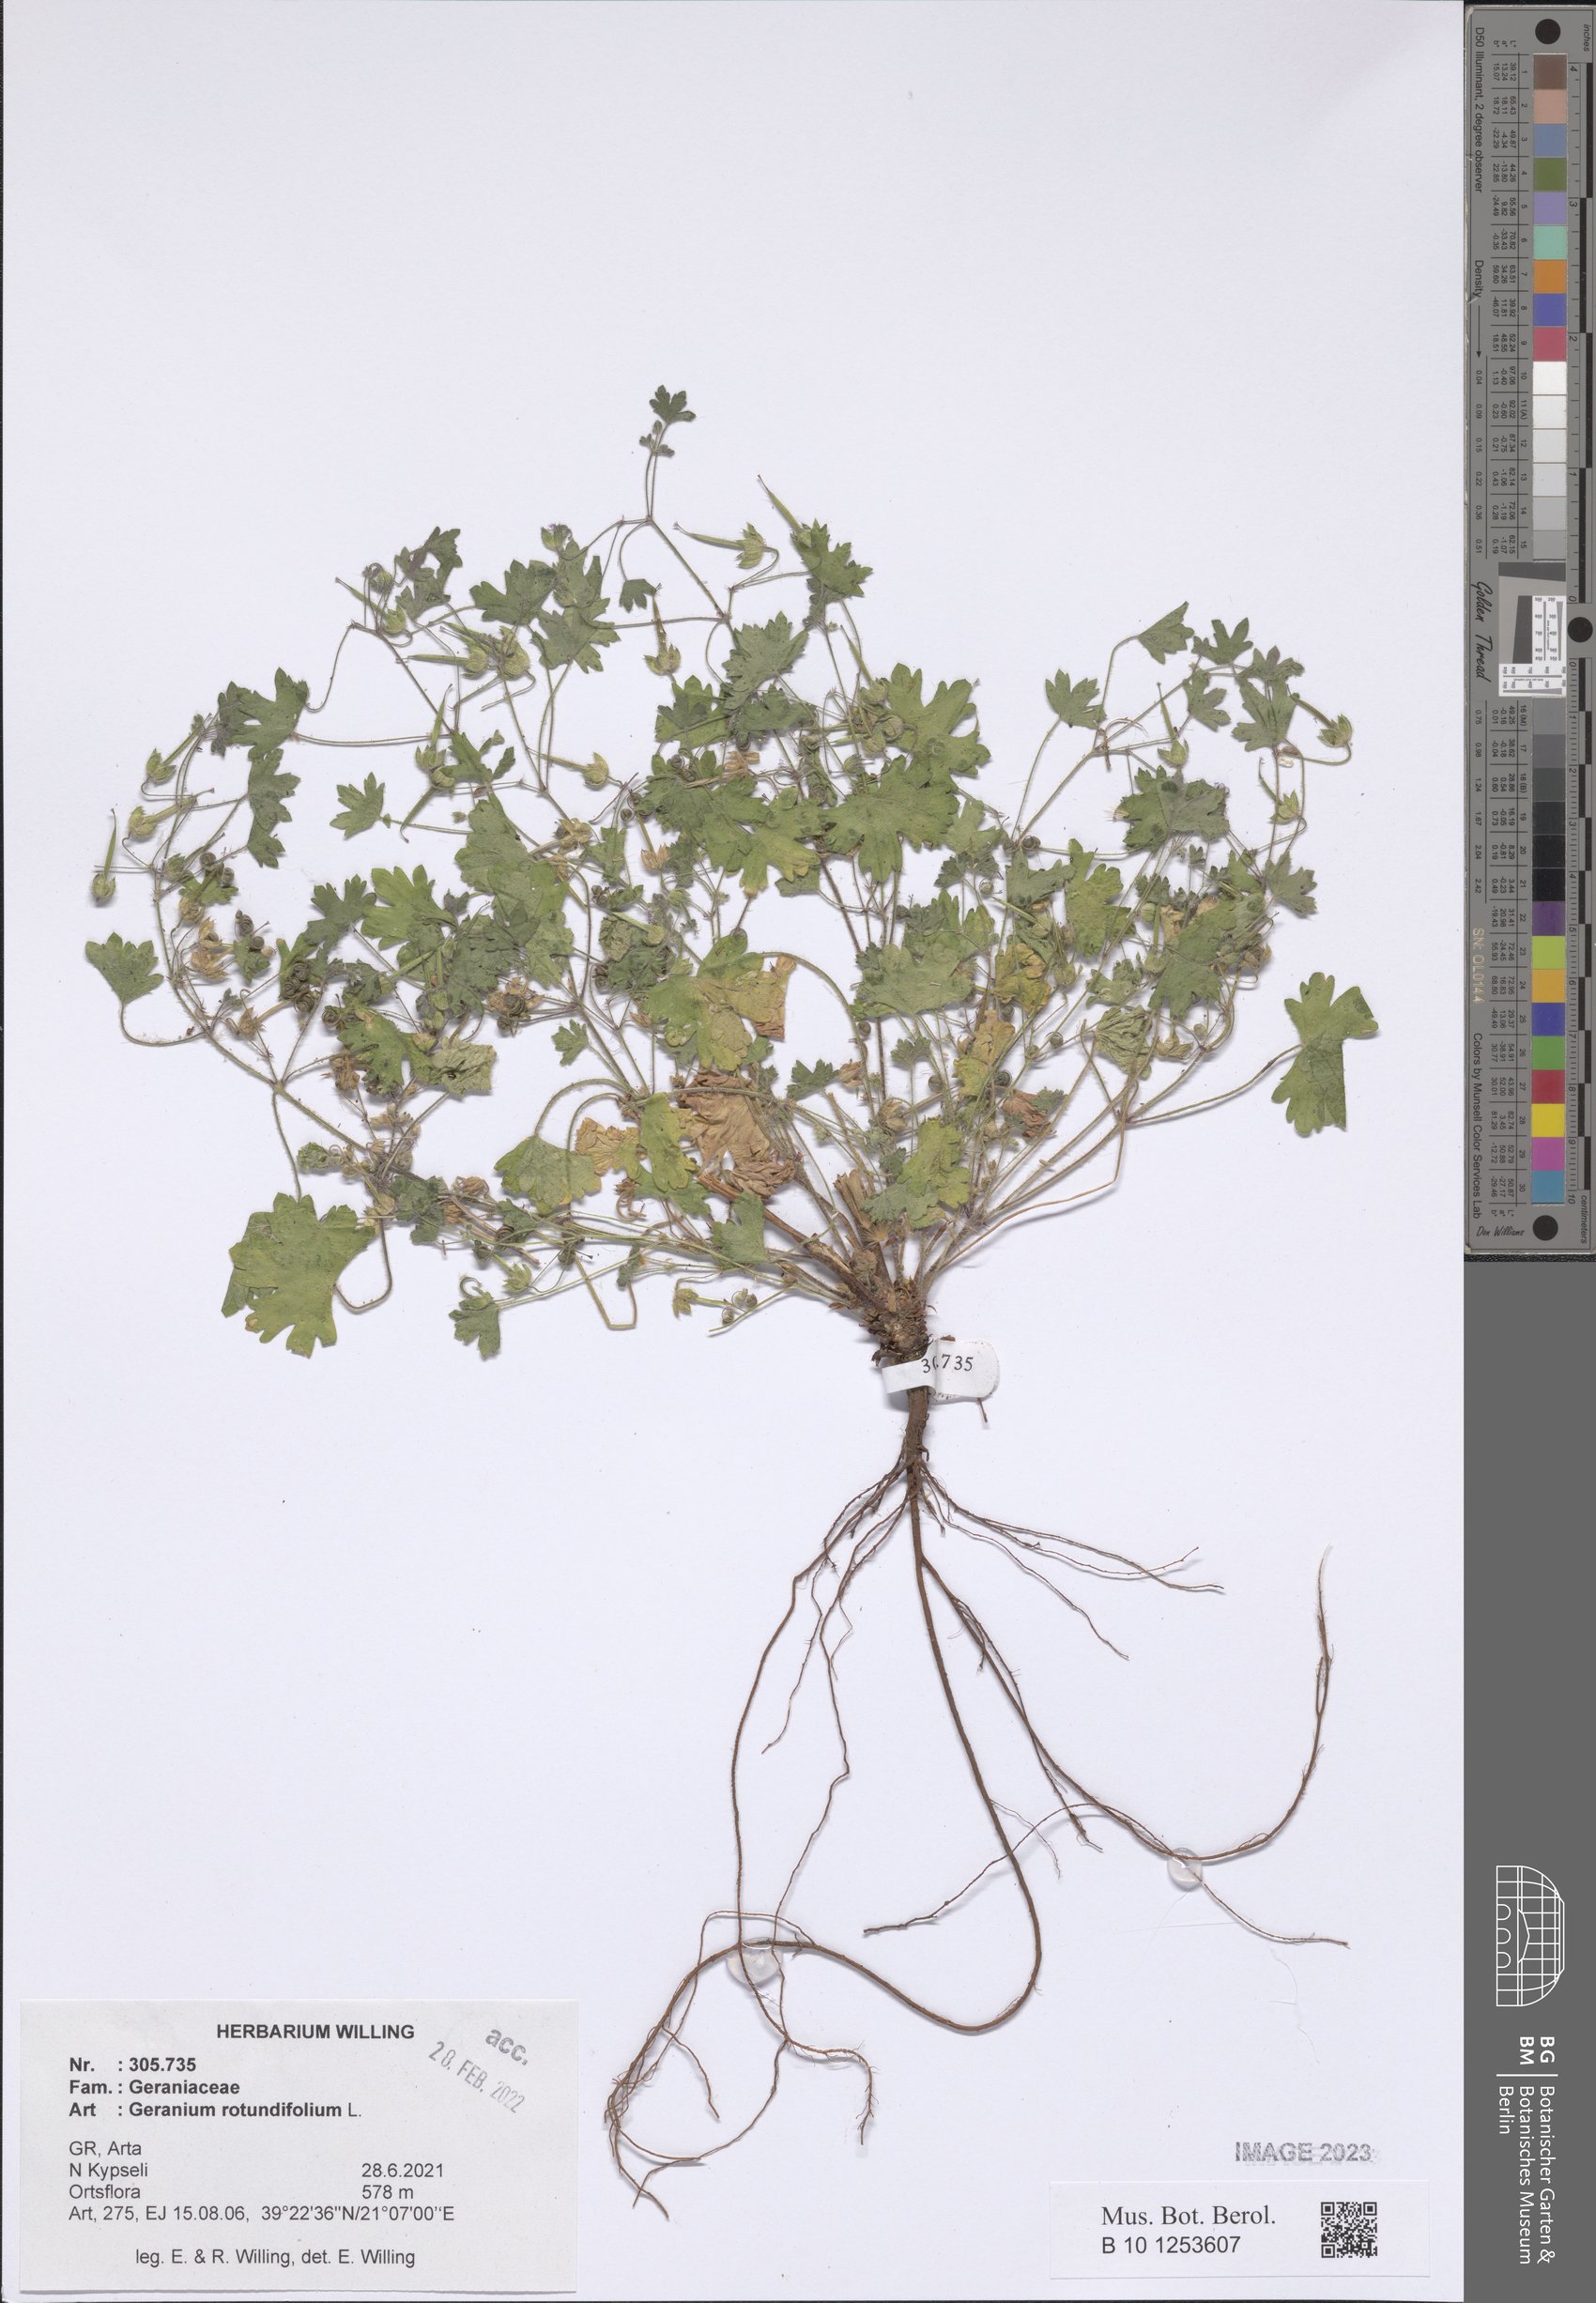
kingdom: Plantae
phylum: Tracheophyta
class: Magnoliopsida
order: Geraniales
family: Geraniaceae
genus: Geranium
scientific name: Geranium rotundifolium
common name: Round-leaved crane's-bill
